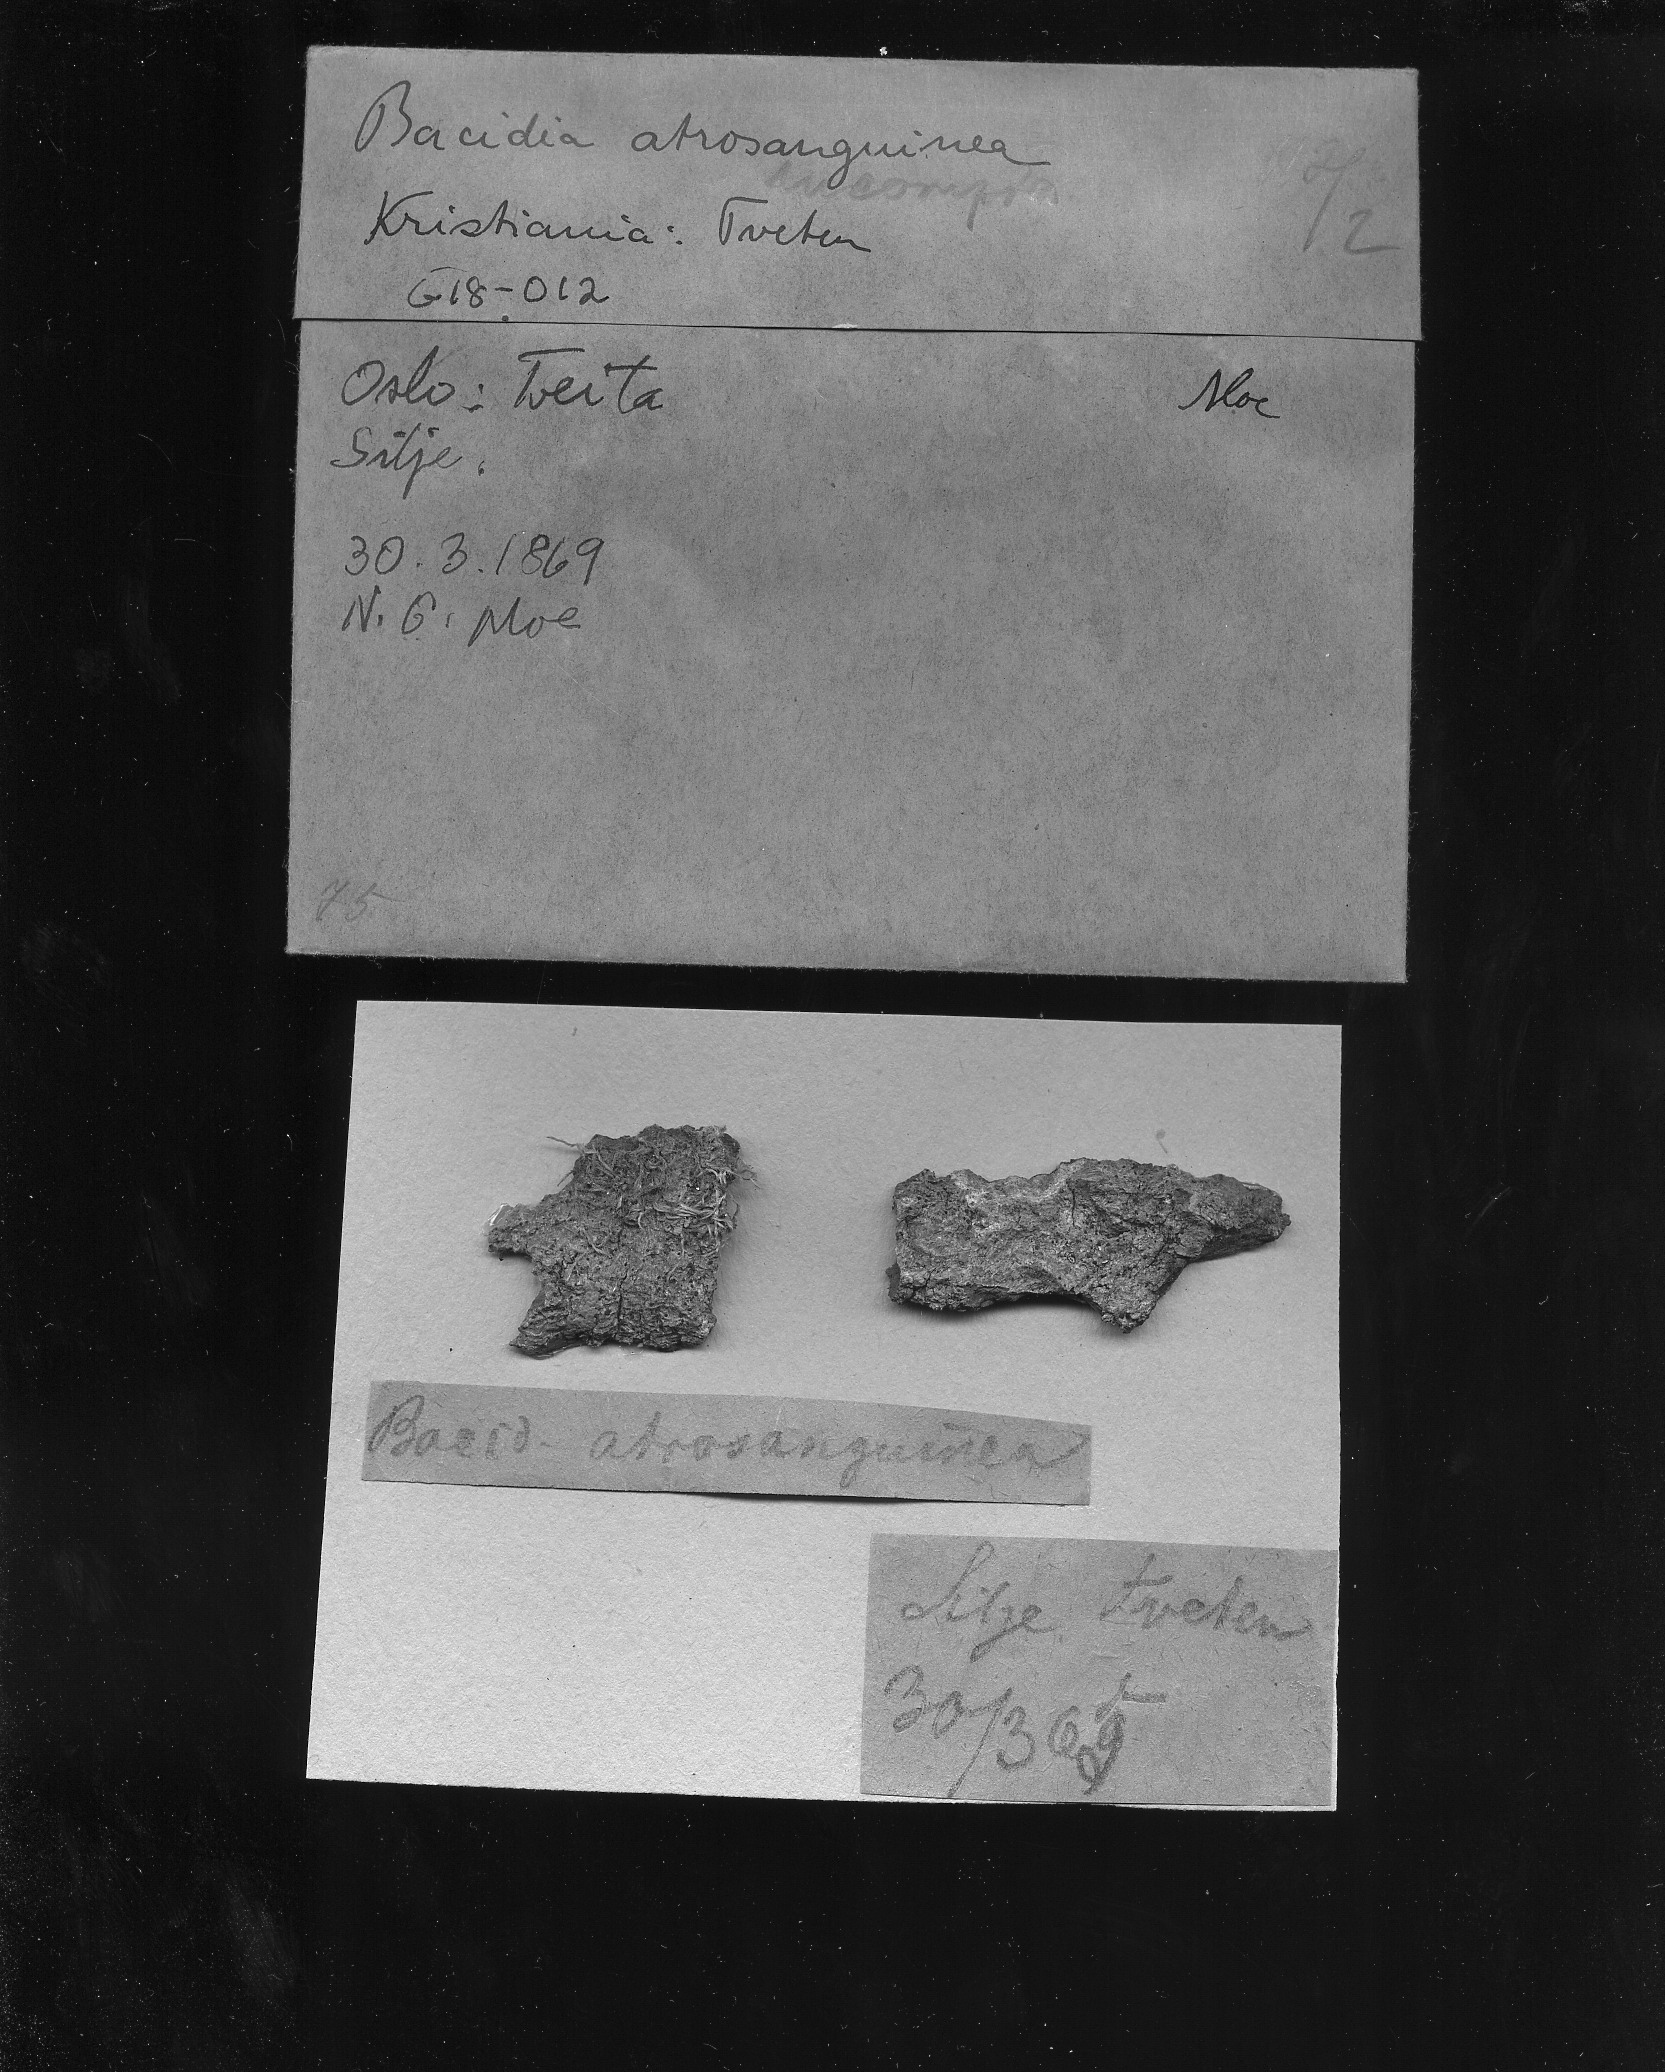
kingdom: Fungi
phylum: Ascomycota
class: Lecanoromycetes
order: Lecanorales
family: Ramalinaceae
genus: Toniniopsis
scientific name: Toniniopsis subincompta
